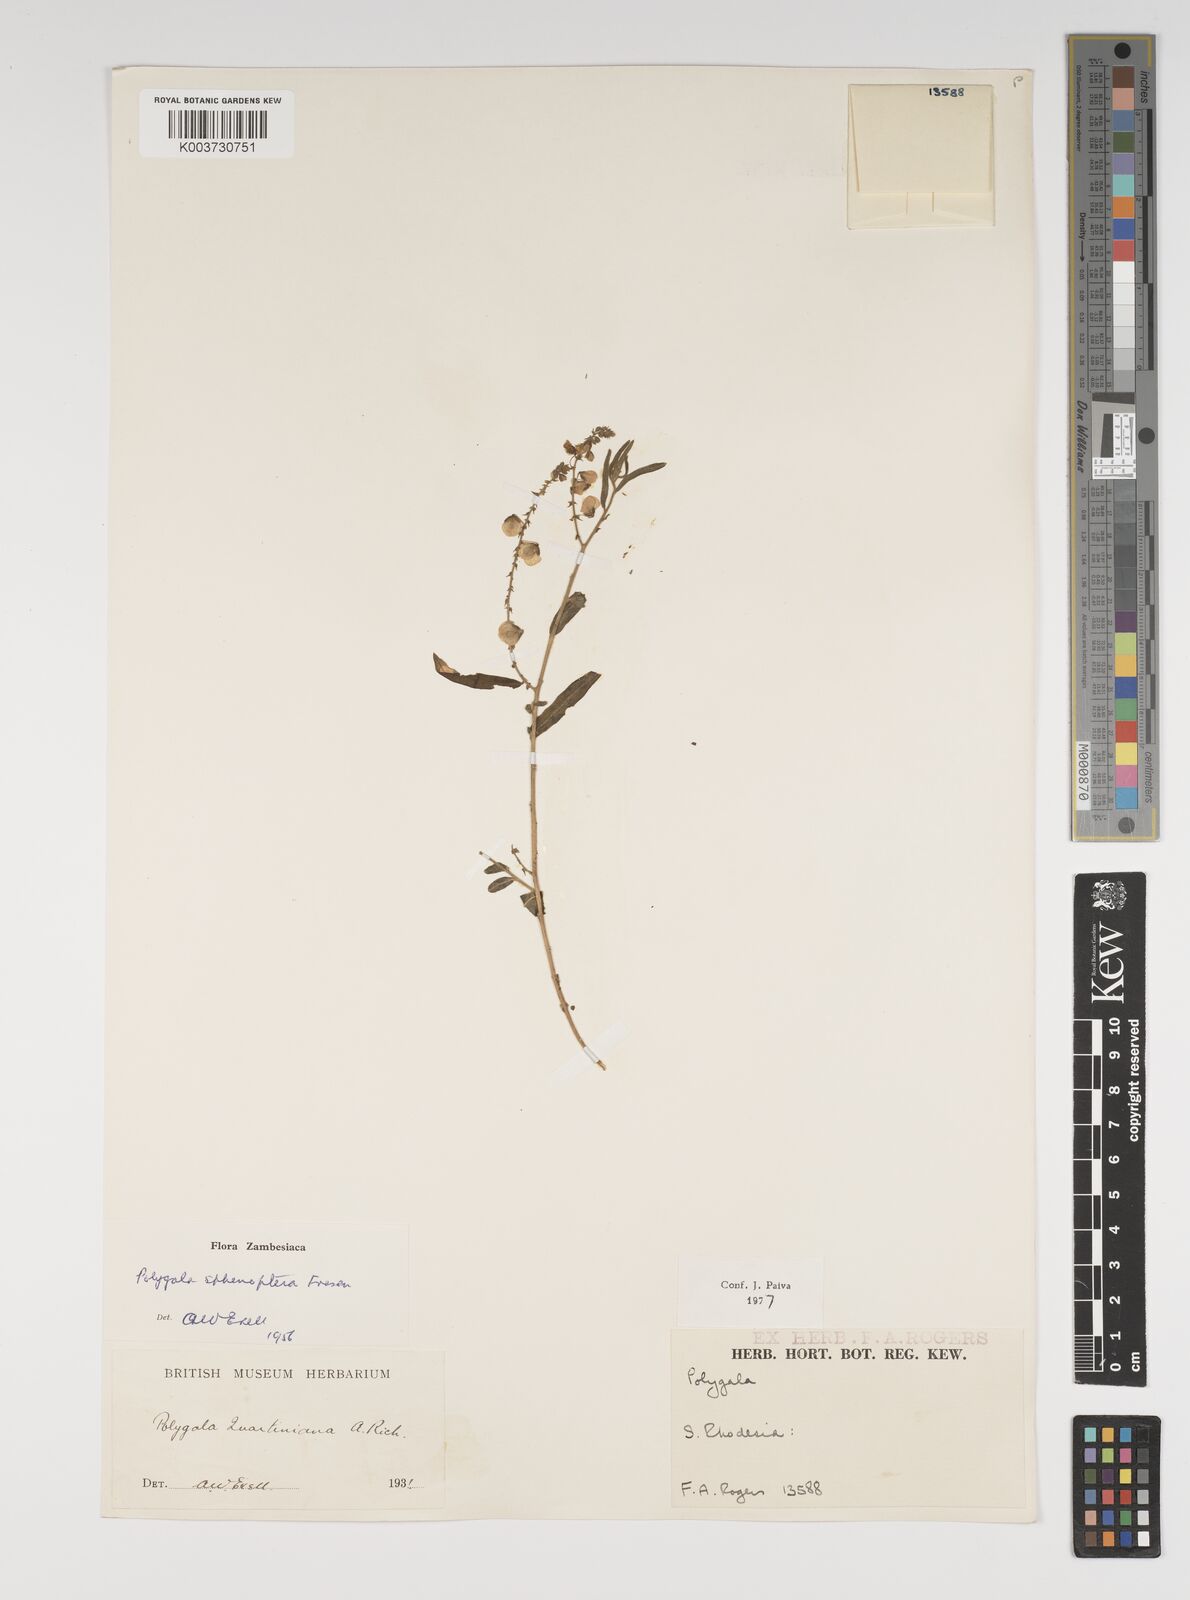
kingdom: Plantae
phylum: Tracheophyta
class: Magnoliopsida
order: Fabales
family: Polygalaceae
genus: Polygala
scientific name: Polygala sphenoptera
